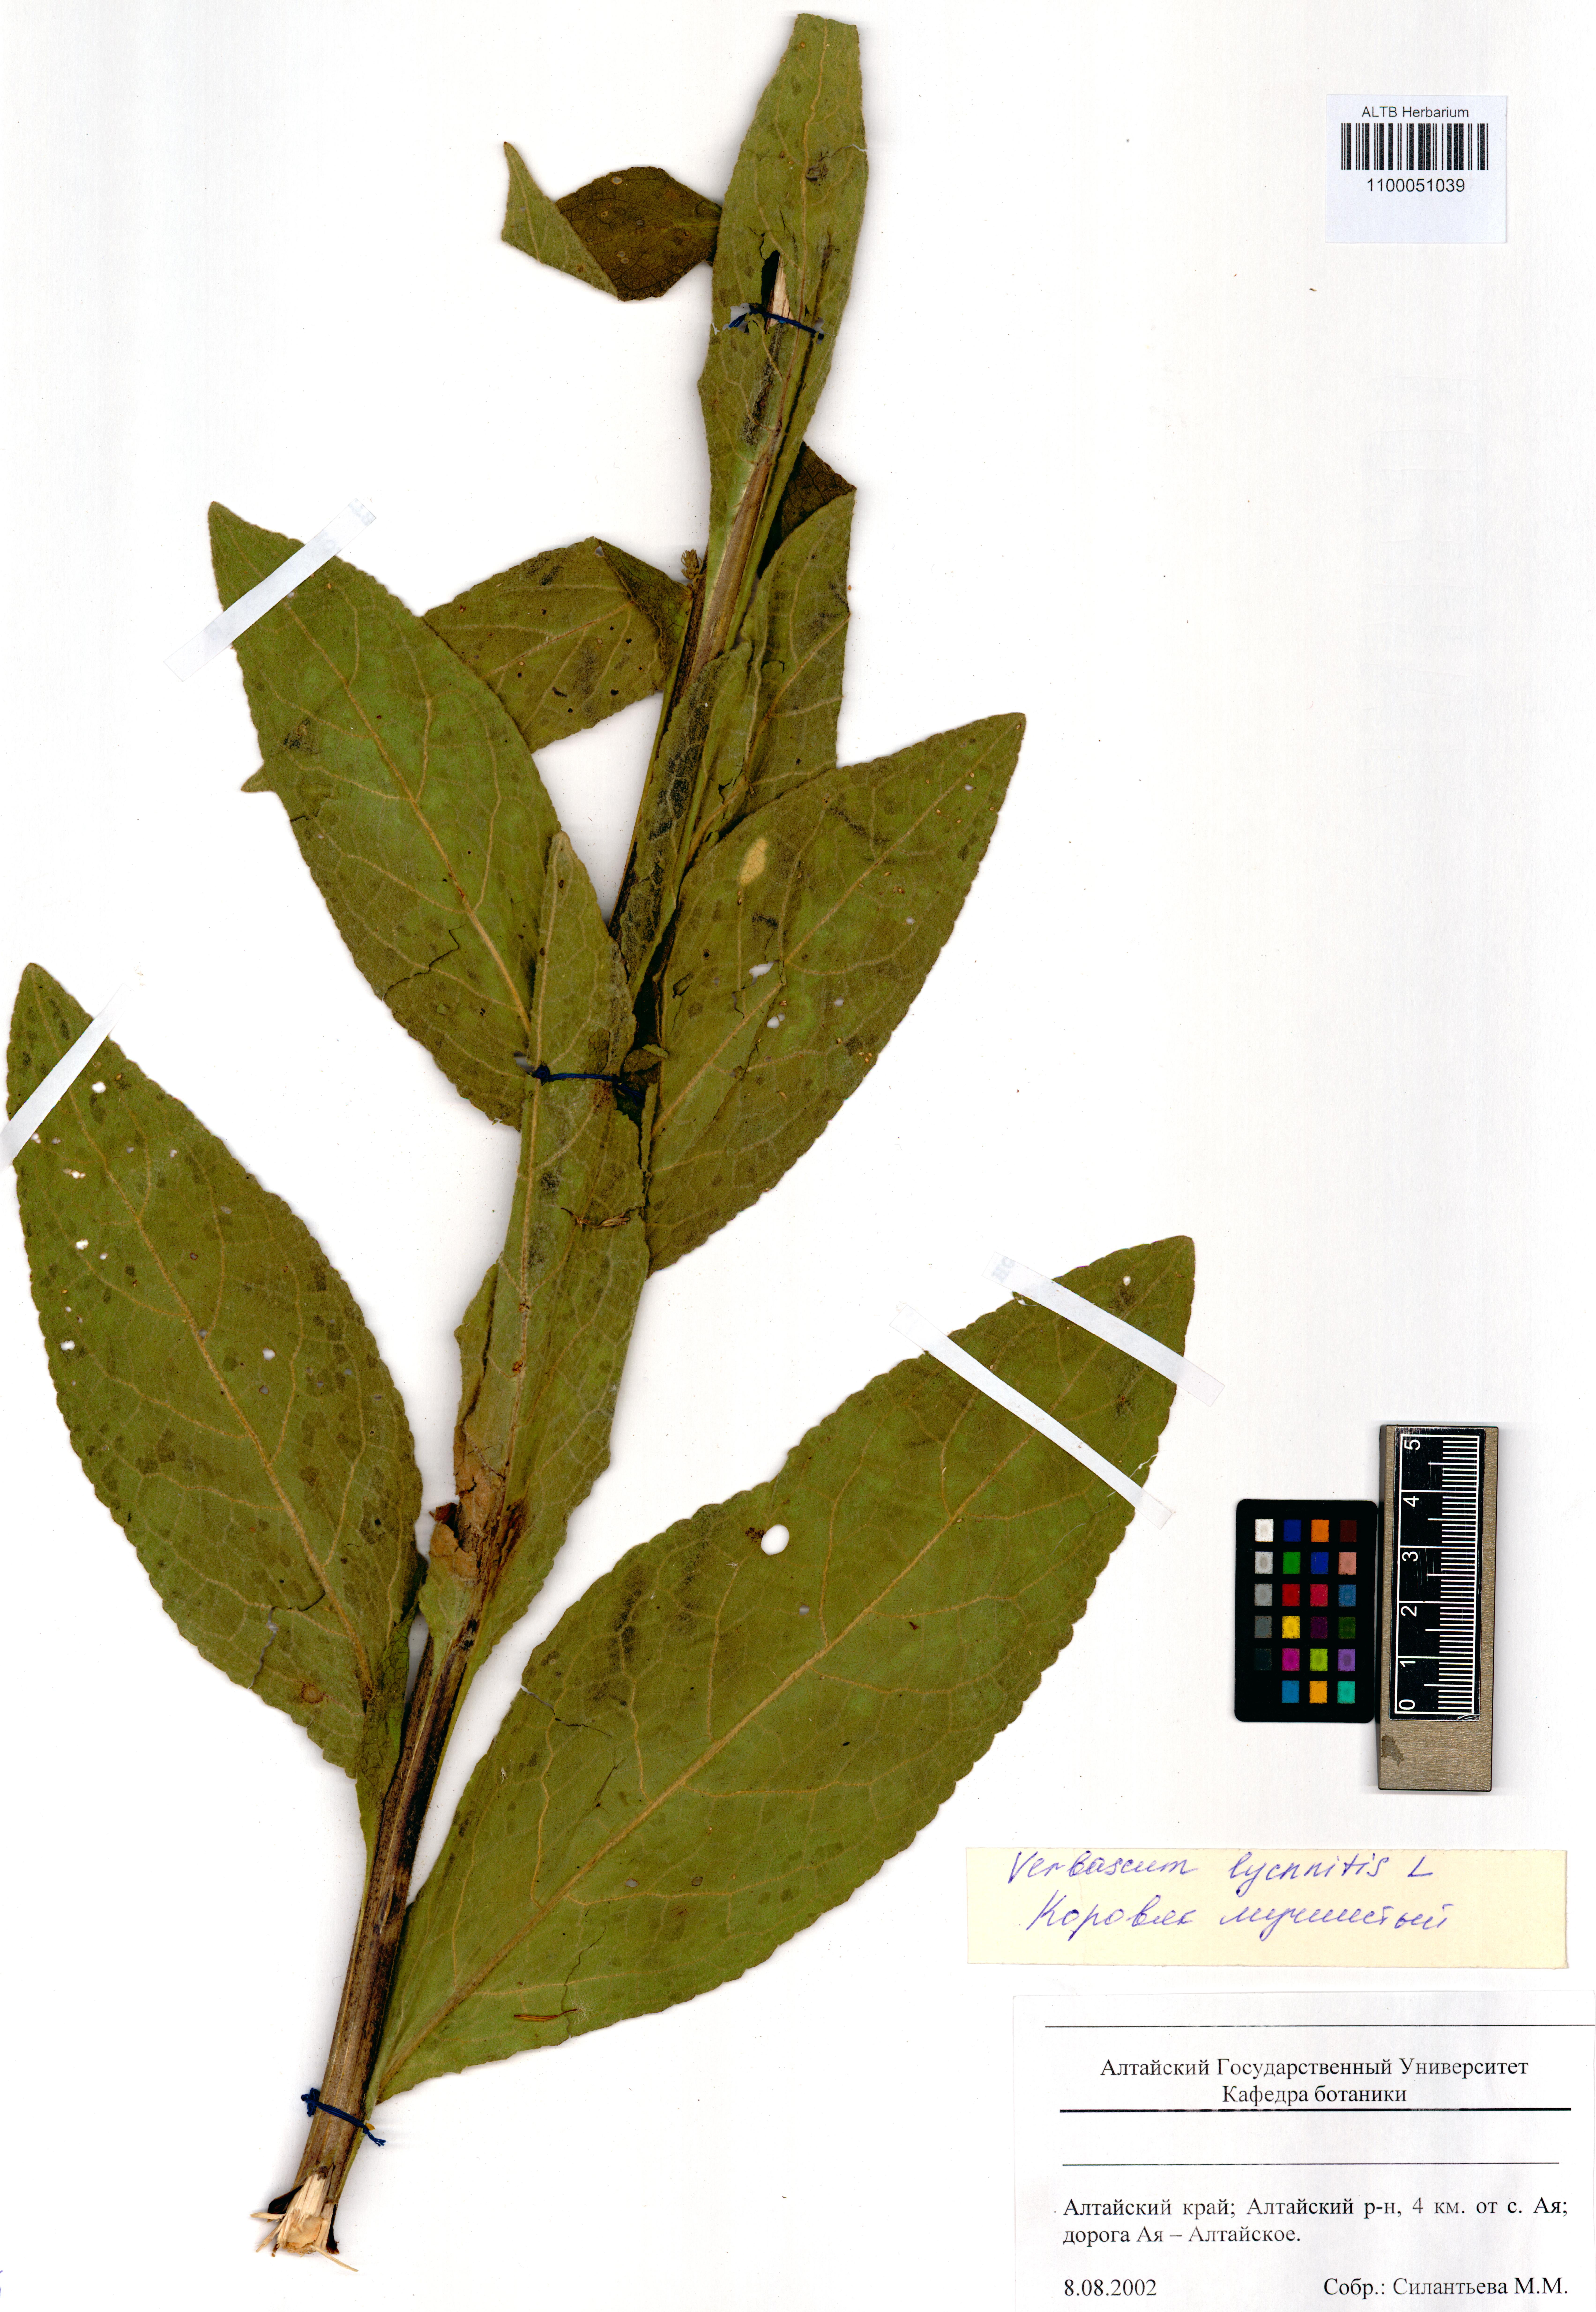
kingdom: Plantae
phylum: Tracheophyta
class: Magnoliopsida
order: Lamiales
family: Scrophulariaceae
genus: Verbascum
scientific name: Verbascum lychnitis
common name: White mullein
